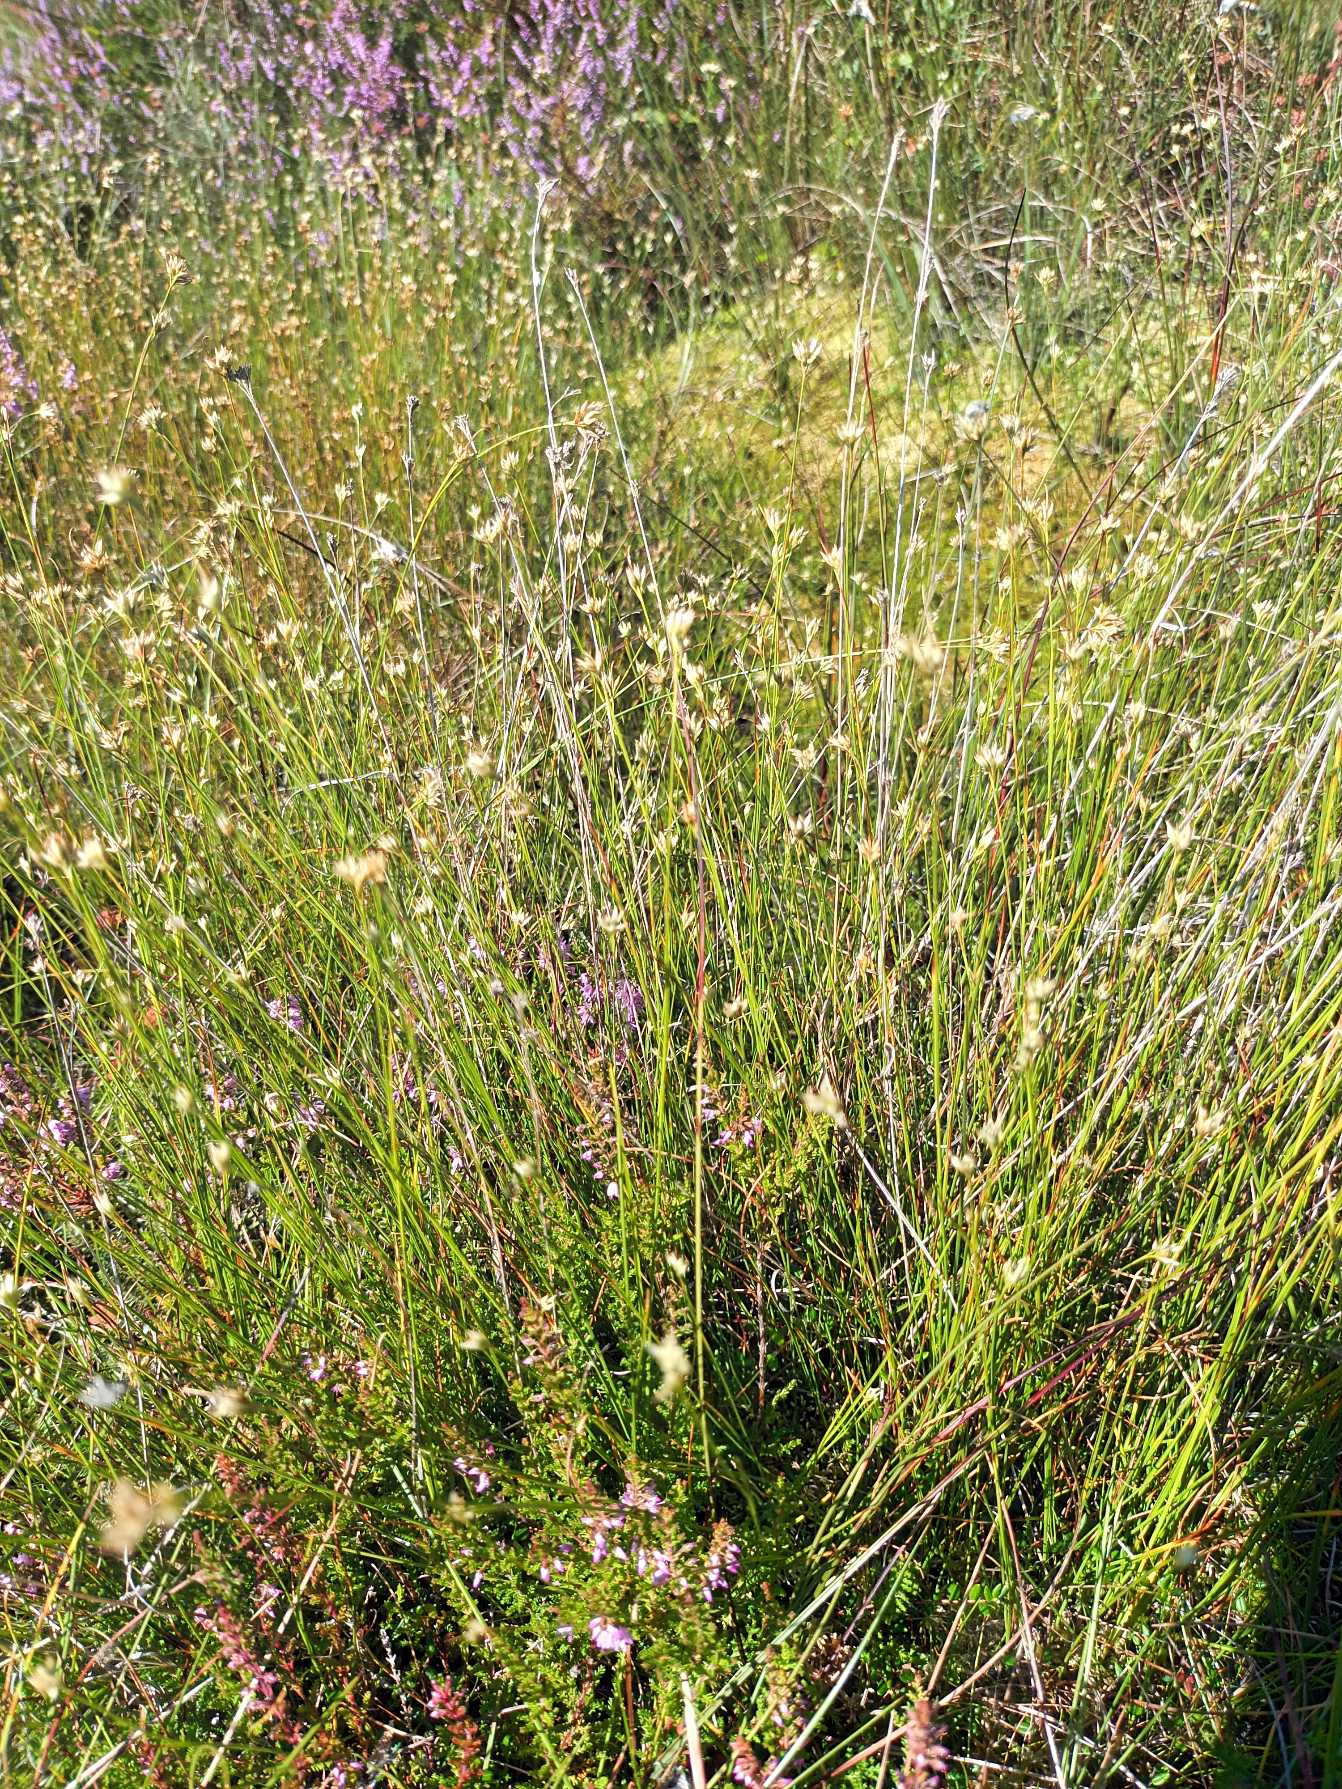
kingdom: Plantae
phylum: Tracheophyta
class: Liliopsida
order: Poales
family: Cyperaceae
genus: Rhynchospora
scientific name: Rhynchospora alba
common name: Hvid næbfrø
